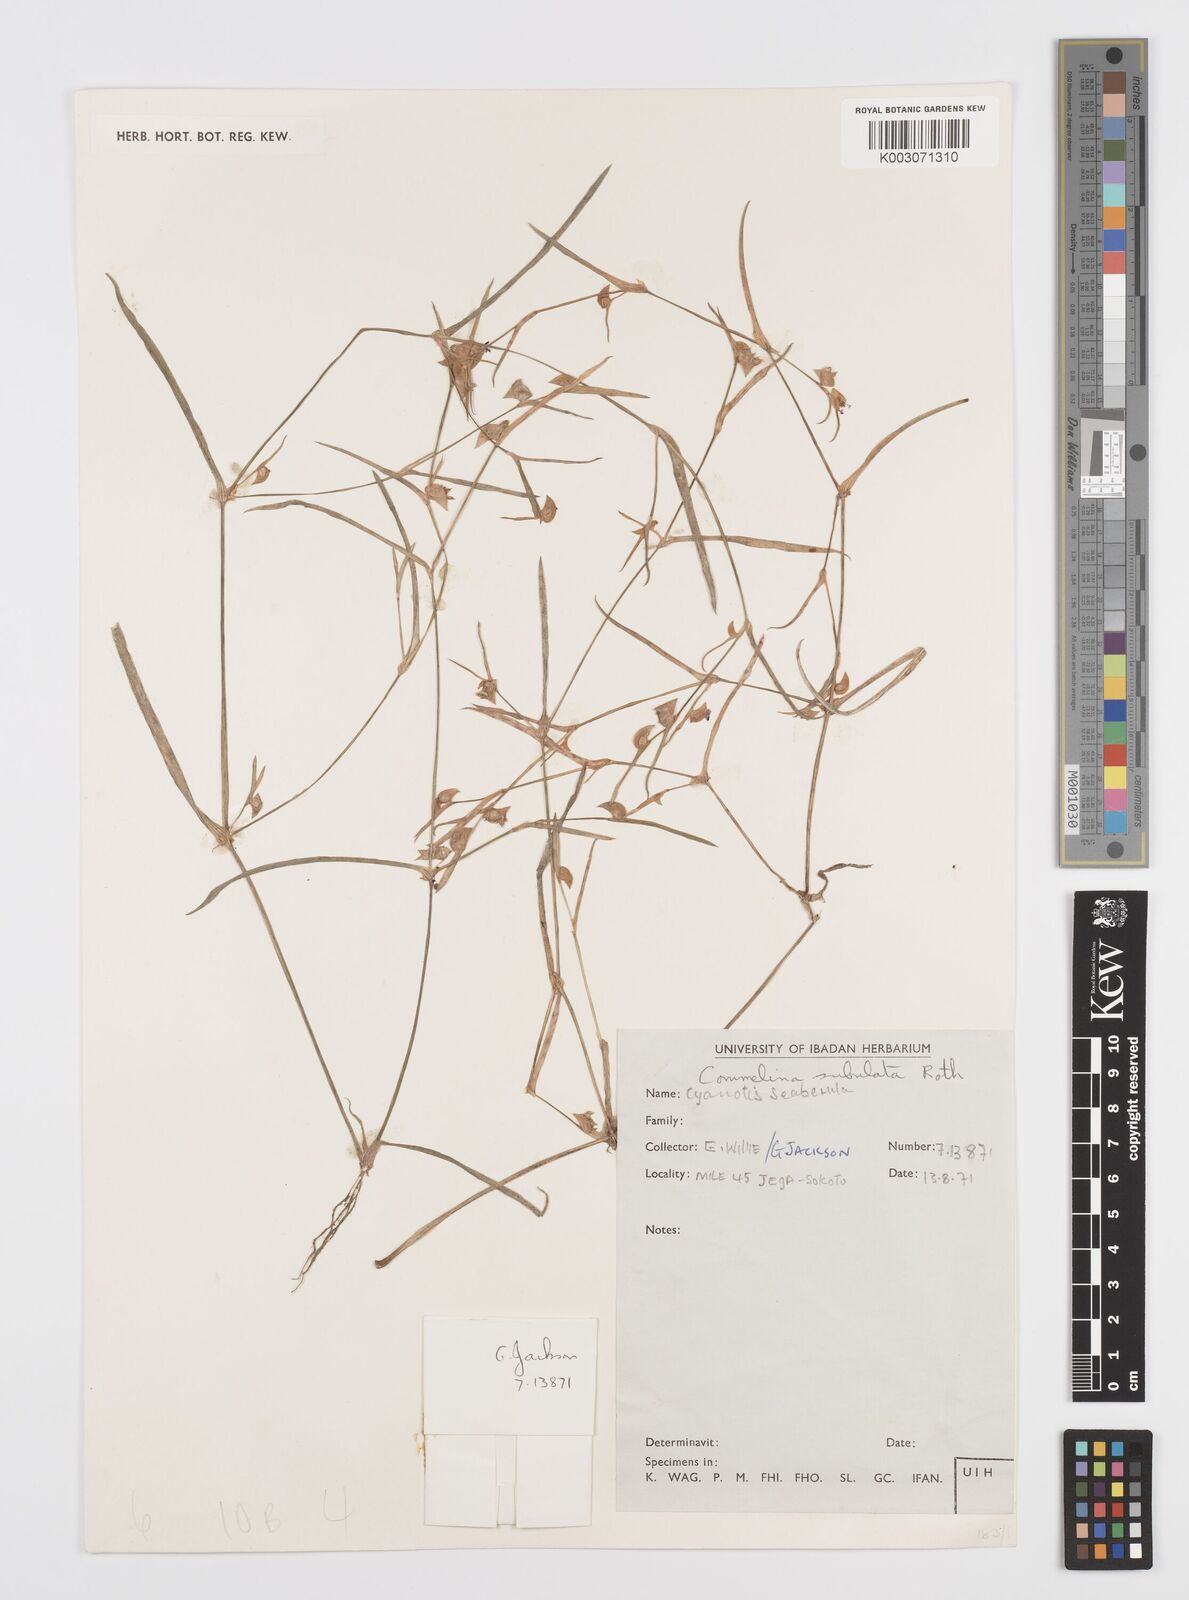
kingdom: Plantae
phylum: Tracheophyta
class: Liliopsida
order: Commelinales
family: Commelinaceae
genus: Commelina
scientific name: Commelina subulata
